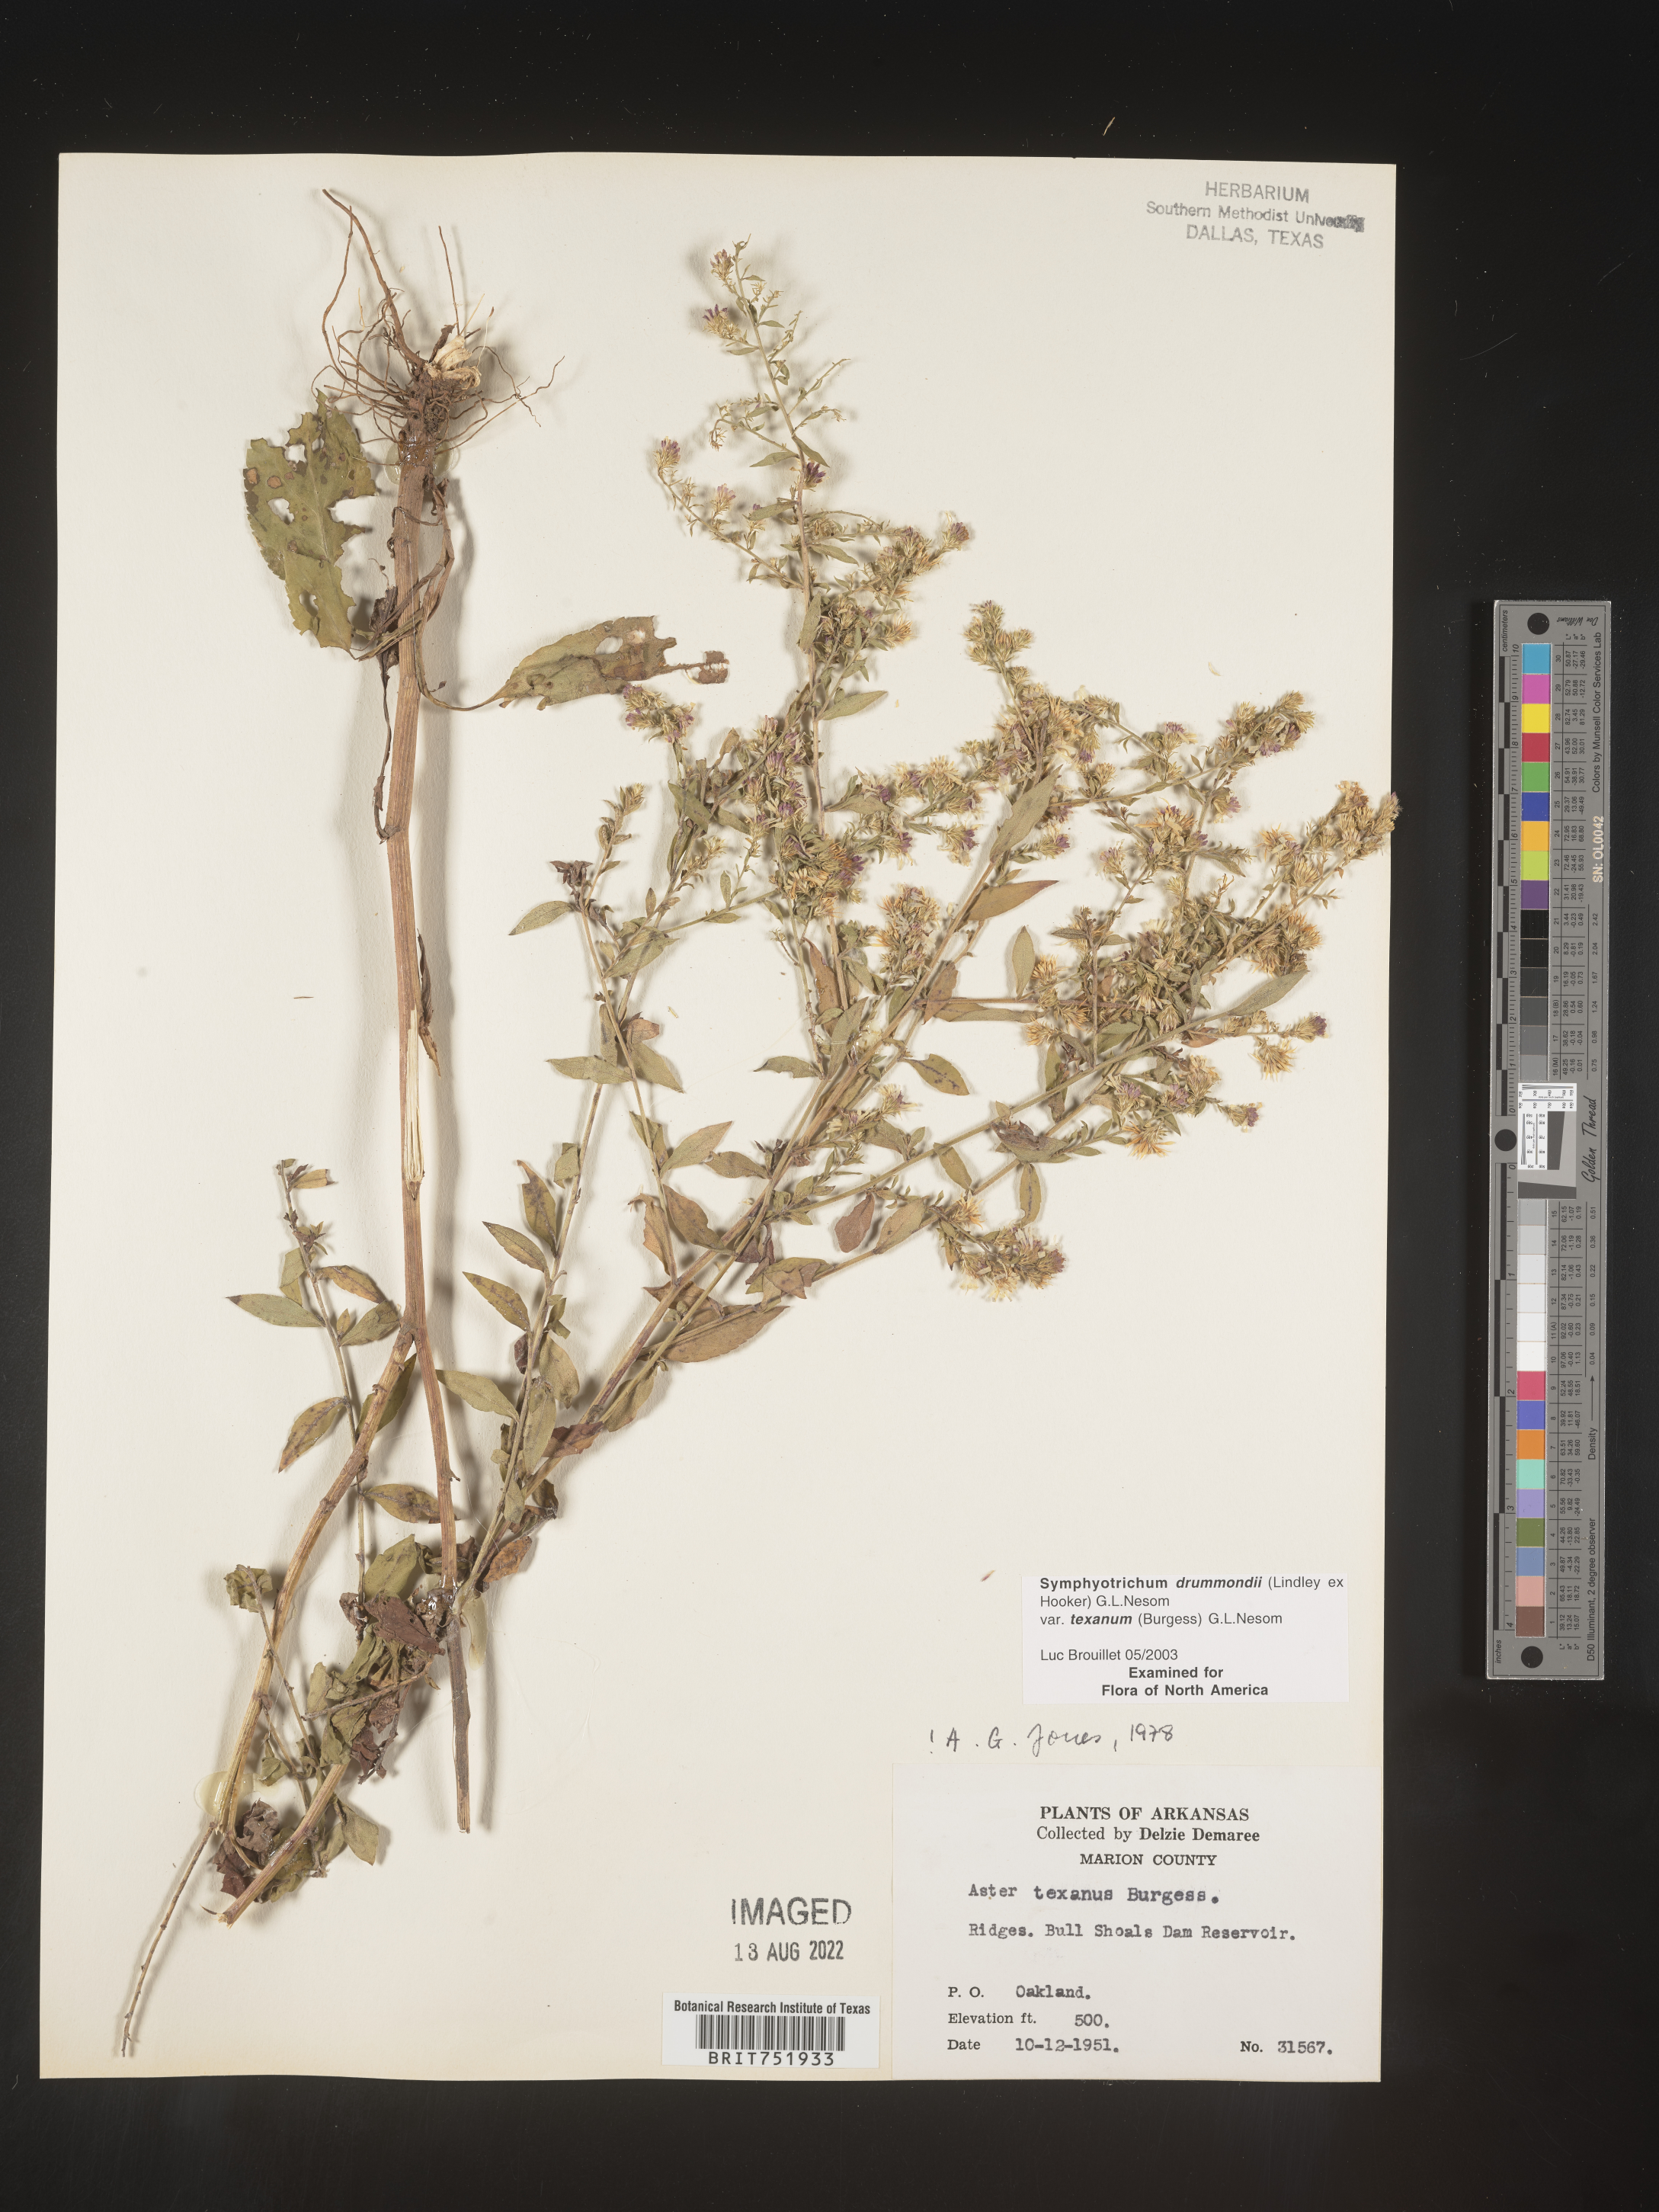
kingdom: Plantae
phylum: Tracheophyta
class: Magnoliopsida
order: Asterales
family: Asteraceae
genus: Symphyotrichum
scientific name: Symphyotrichum drummondii
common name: Drummond's aster
